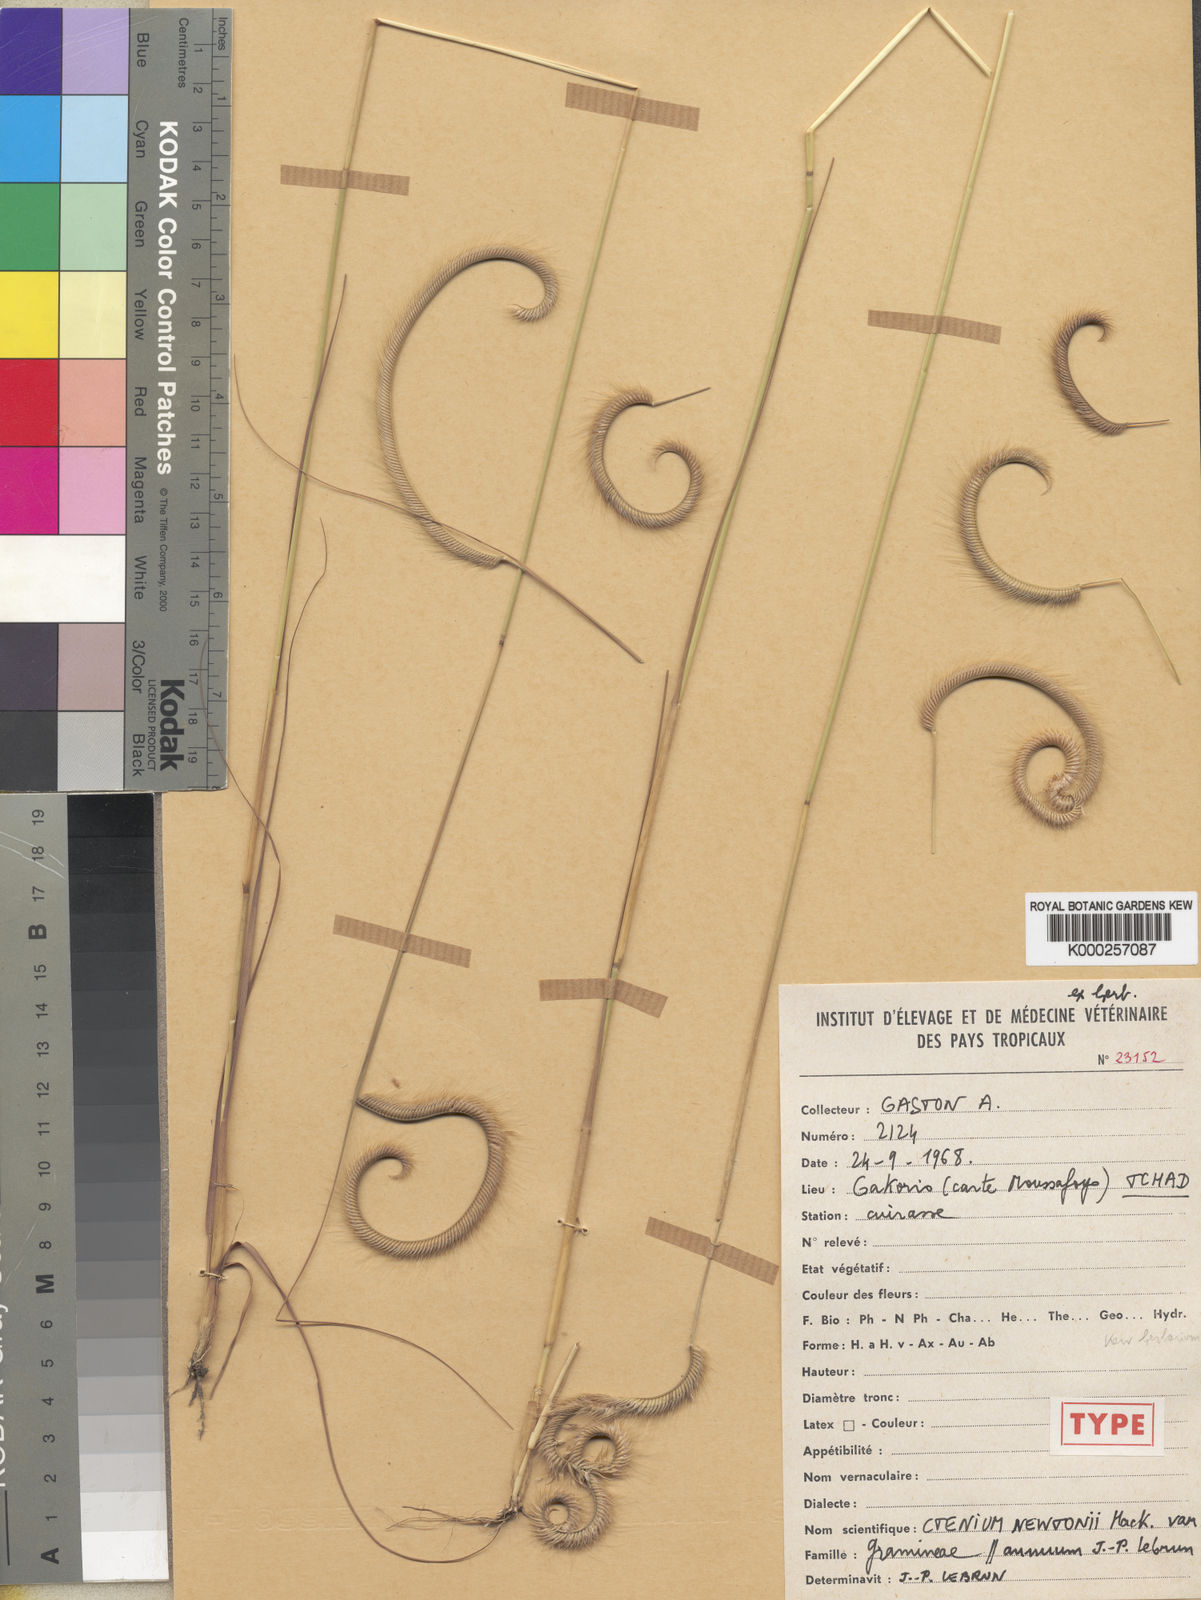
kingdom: Plantae
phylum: Tracheophyta
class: Liliopsida
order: Poales
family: Poaceae
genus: Ctenium
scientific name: Ctenium newtonii
